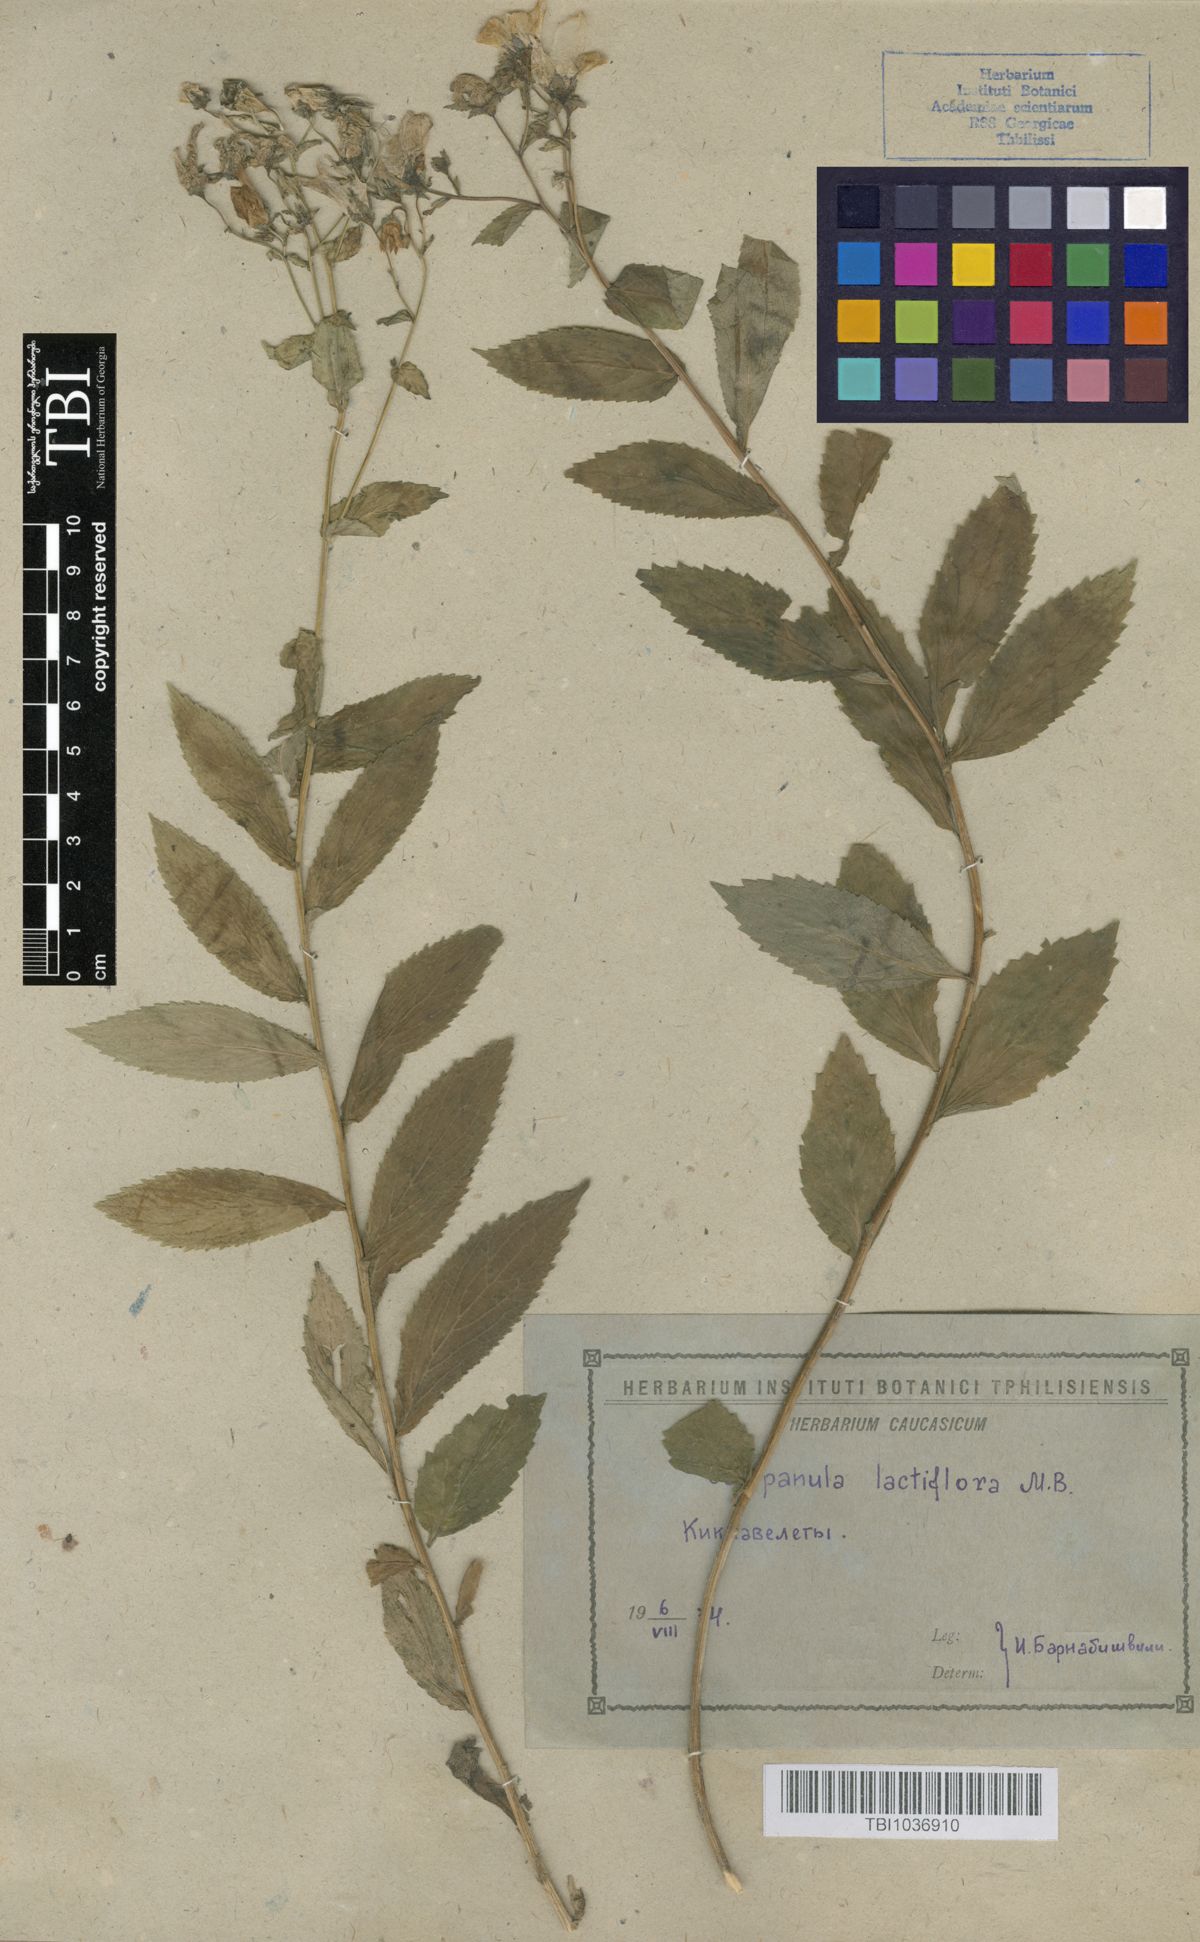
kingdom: Plantae
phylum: Tracheophyta
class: Magnoliopsida
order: Asterales
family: Campanulaceae
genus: Campanula
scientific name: Campanula lactiflora
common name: Milky bellflower
